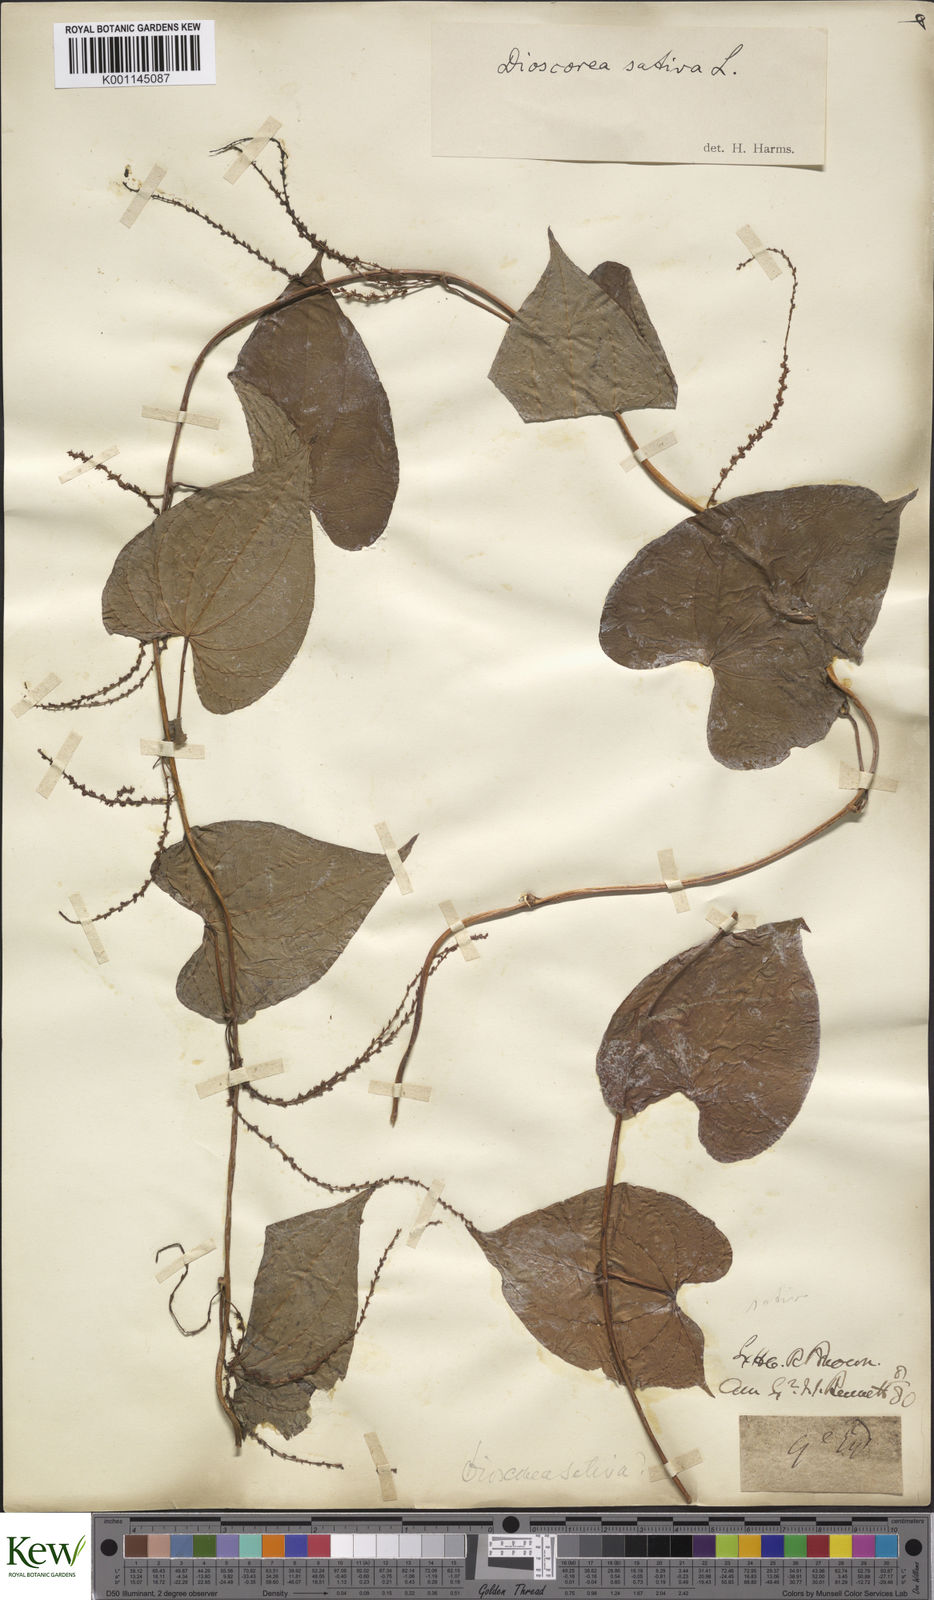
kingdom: Plantae
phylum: Tracheophyta
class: Liliopsida
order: Dioscoreales
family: Dioscoreaceae
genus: Dioscorea
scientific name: Dioscorea bulbifera
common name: Air yam
